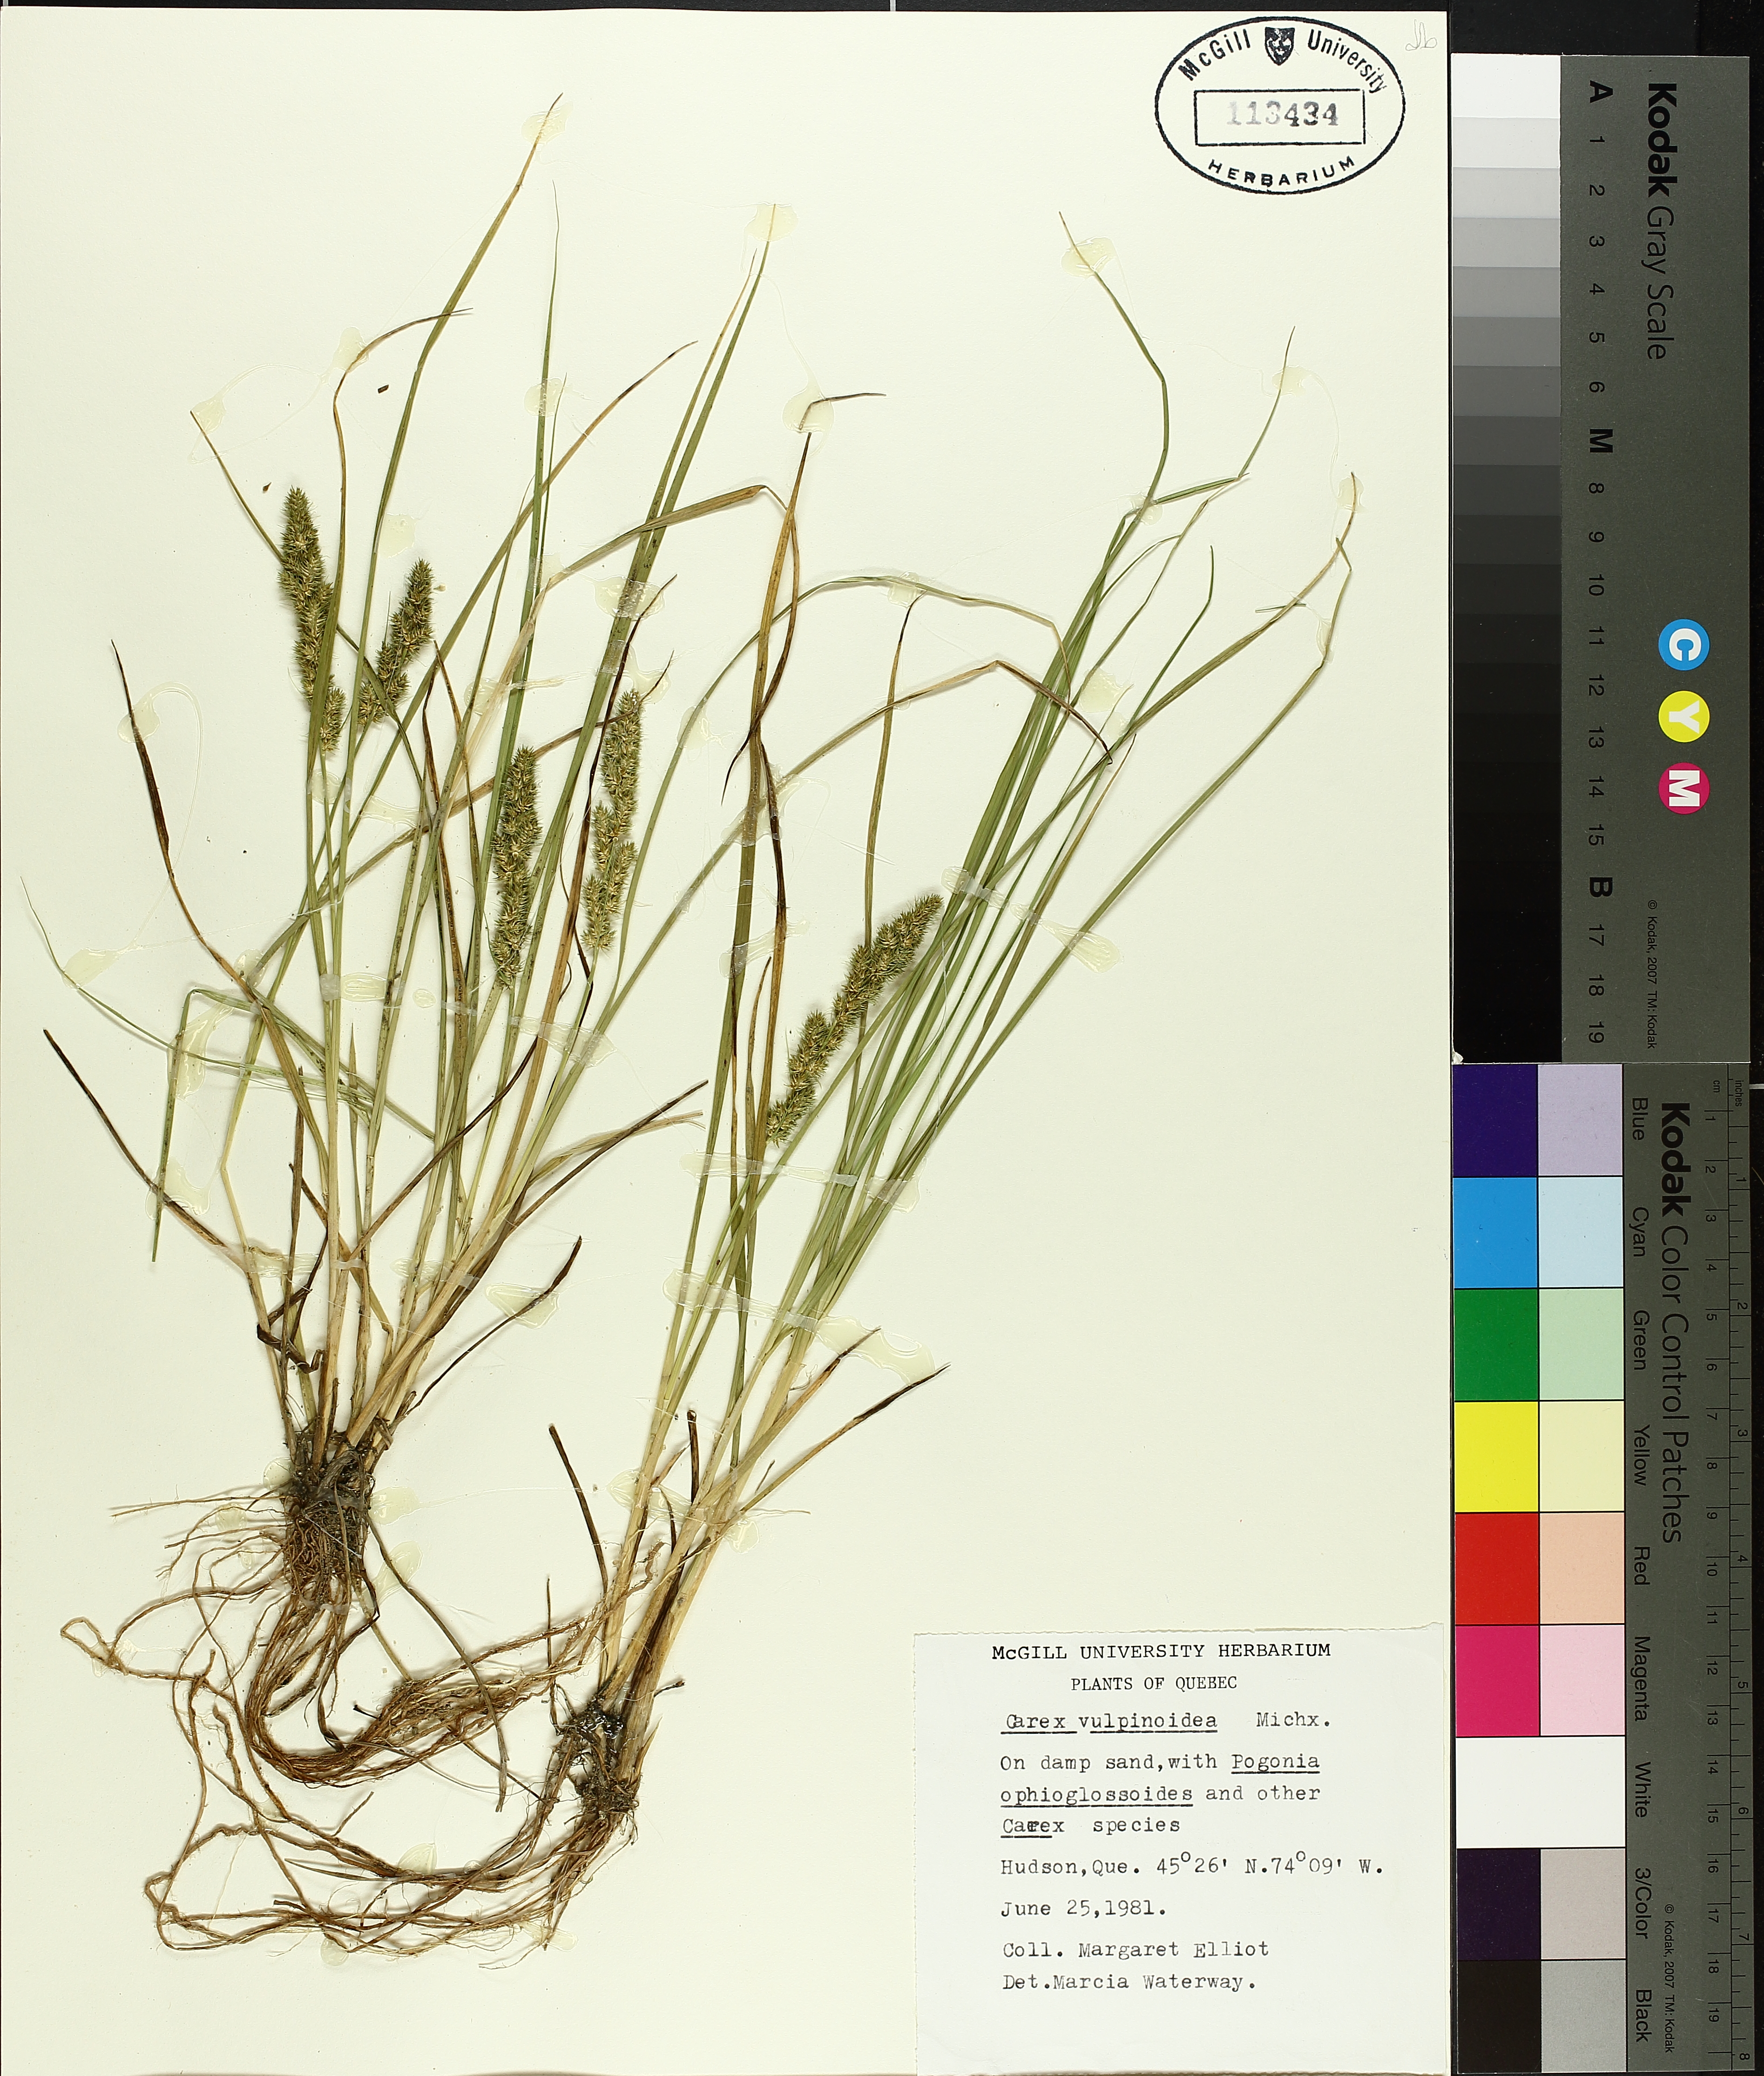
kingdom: Plantae
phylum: Tracheophyta
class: Liliopsida
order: Poales
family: Cyperaceae
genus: Carex
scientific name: Carex vulpinoidea
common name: American fox-sedge
